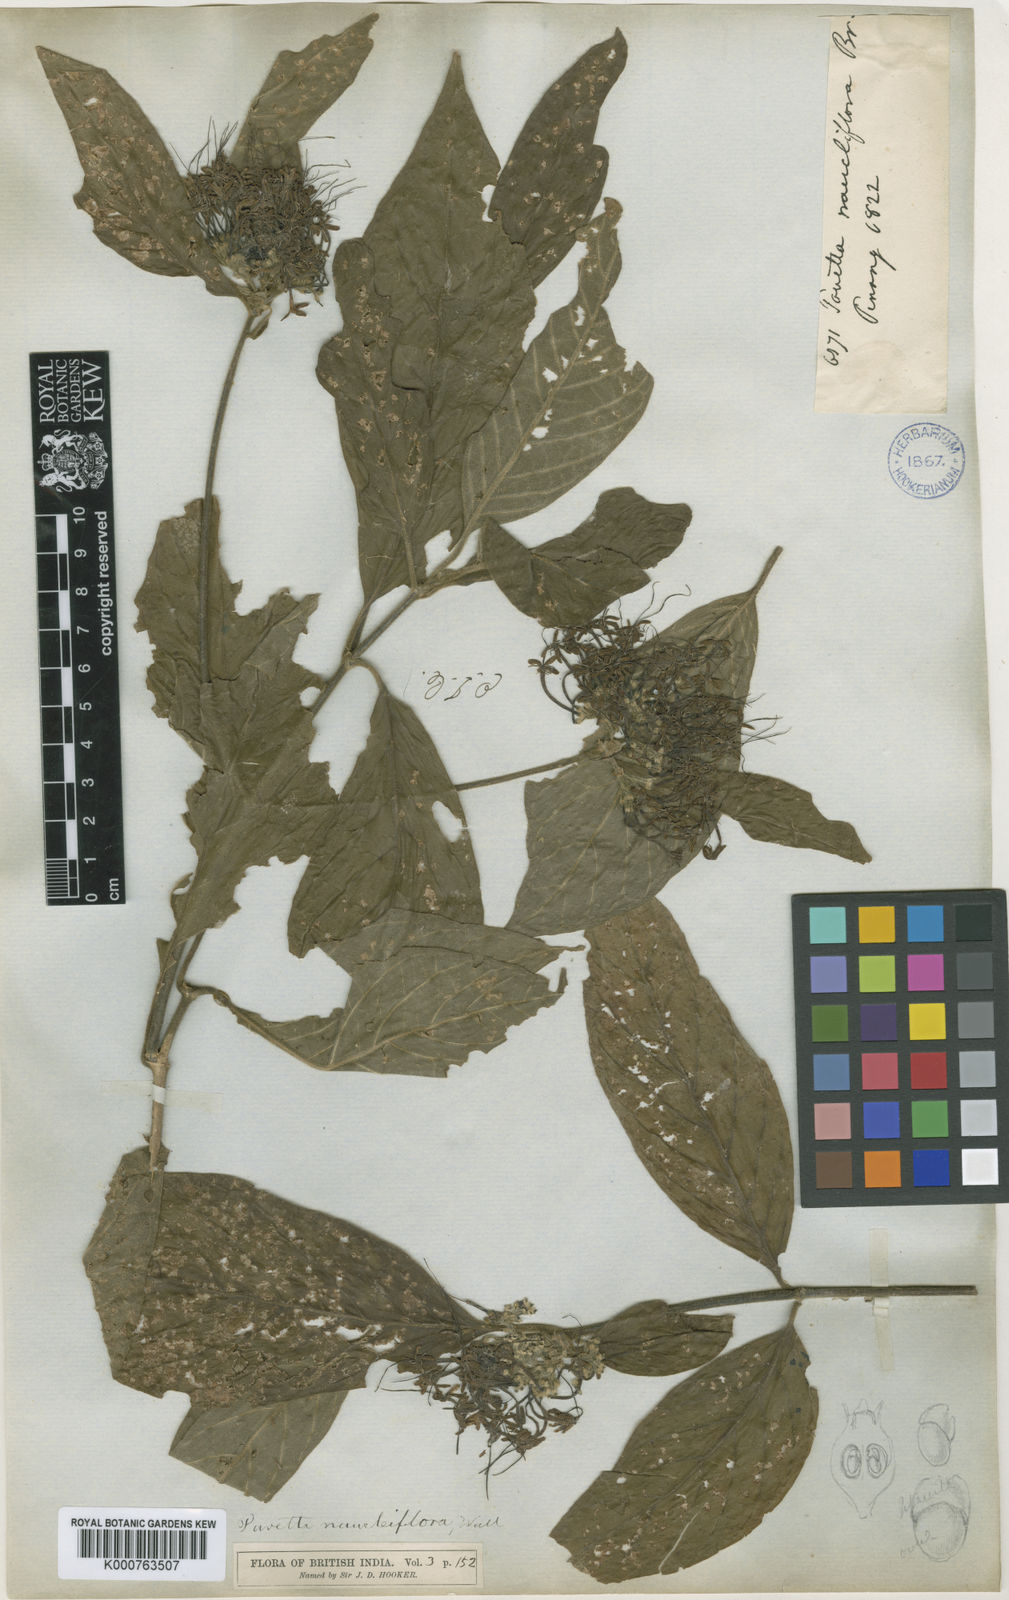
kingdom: Plantae
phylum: Tracheophyta
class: Magnoliopsida
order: Gentianales
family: Rubiaceae
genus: Pavetta
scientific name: Pavetta
